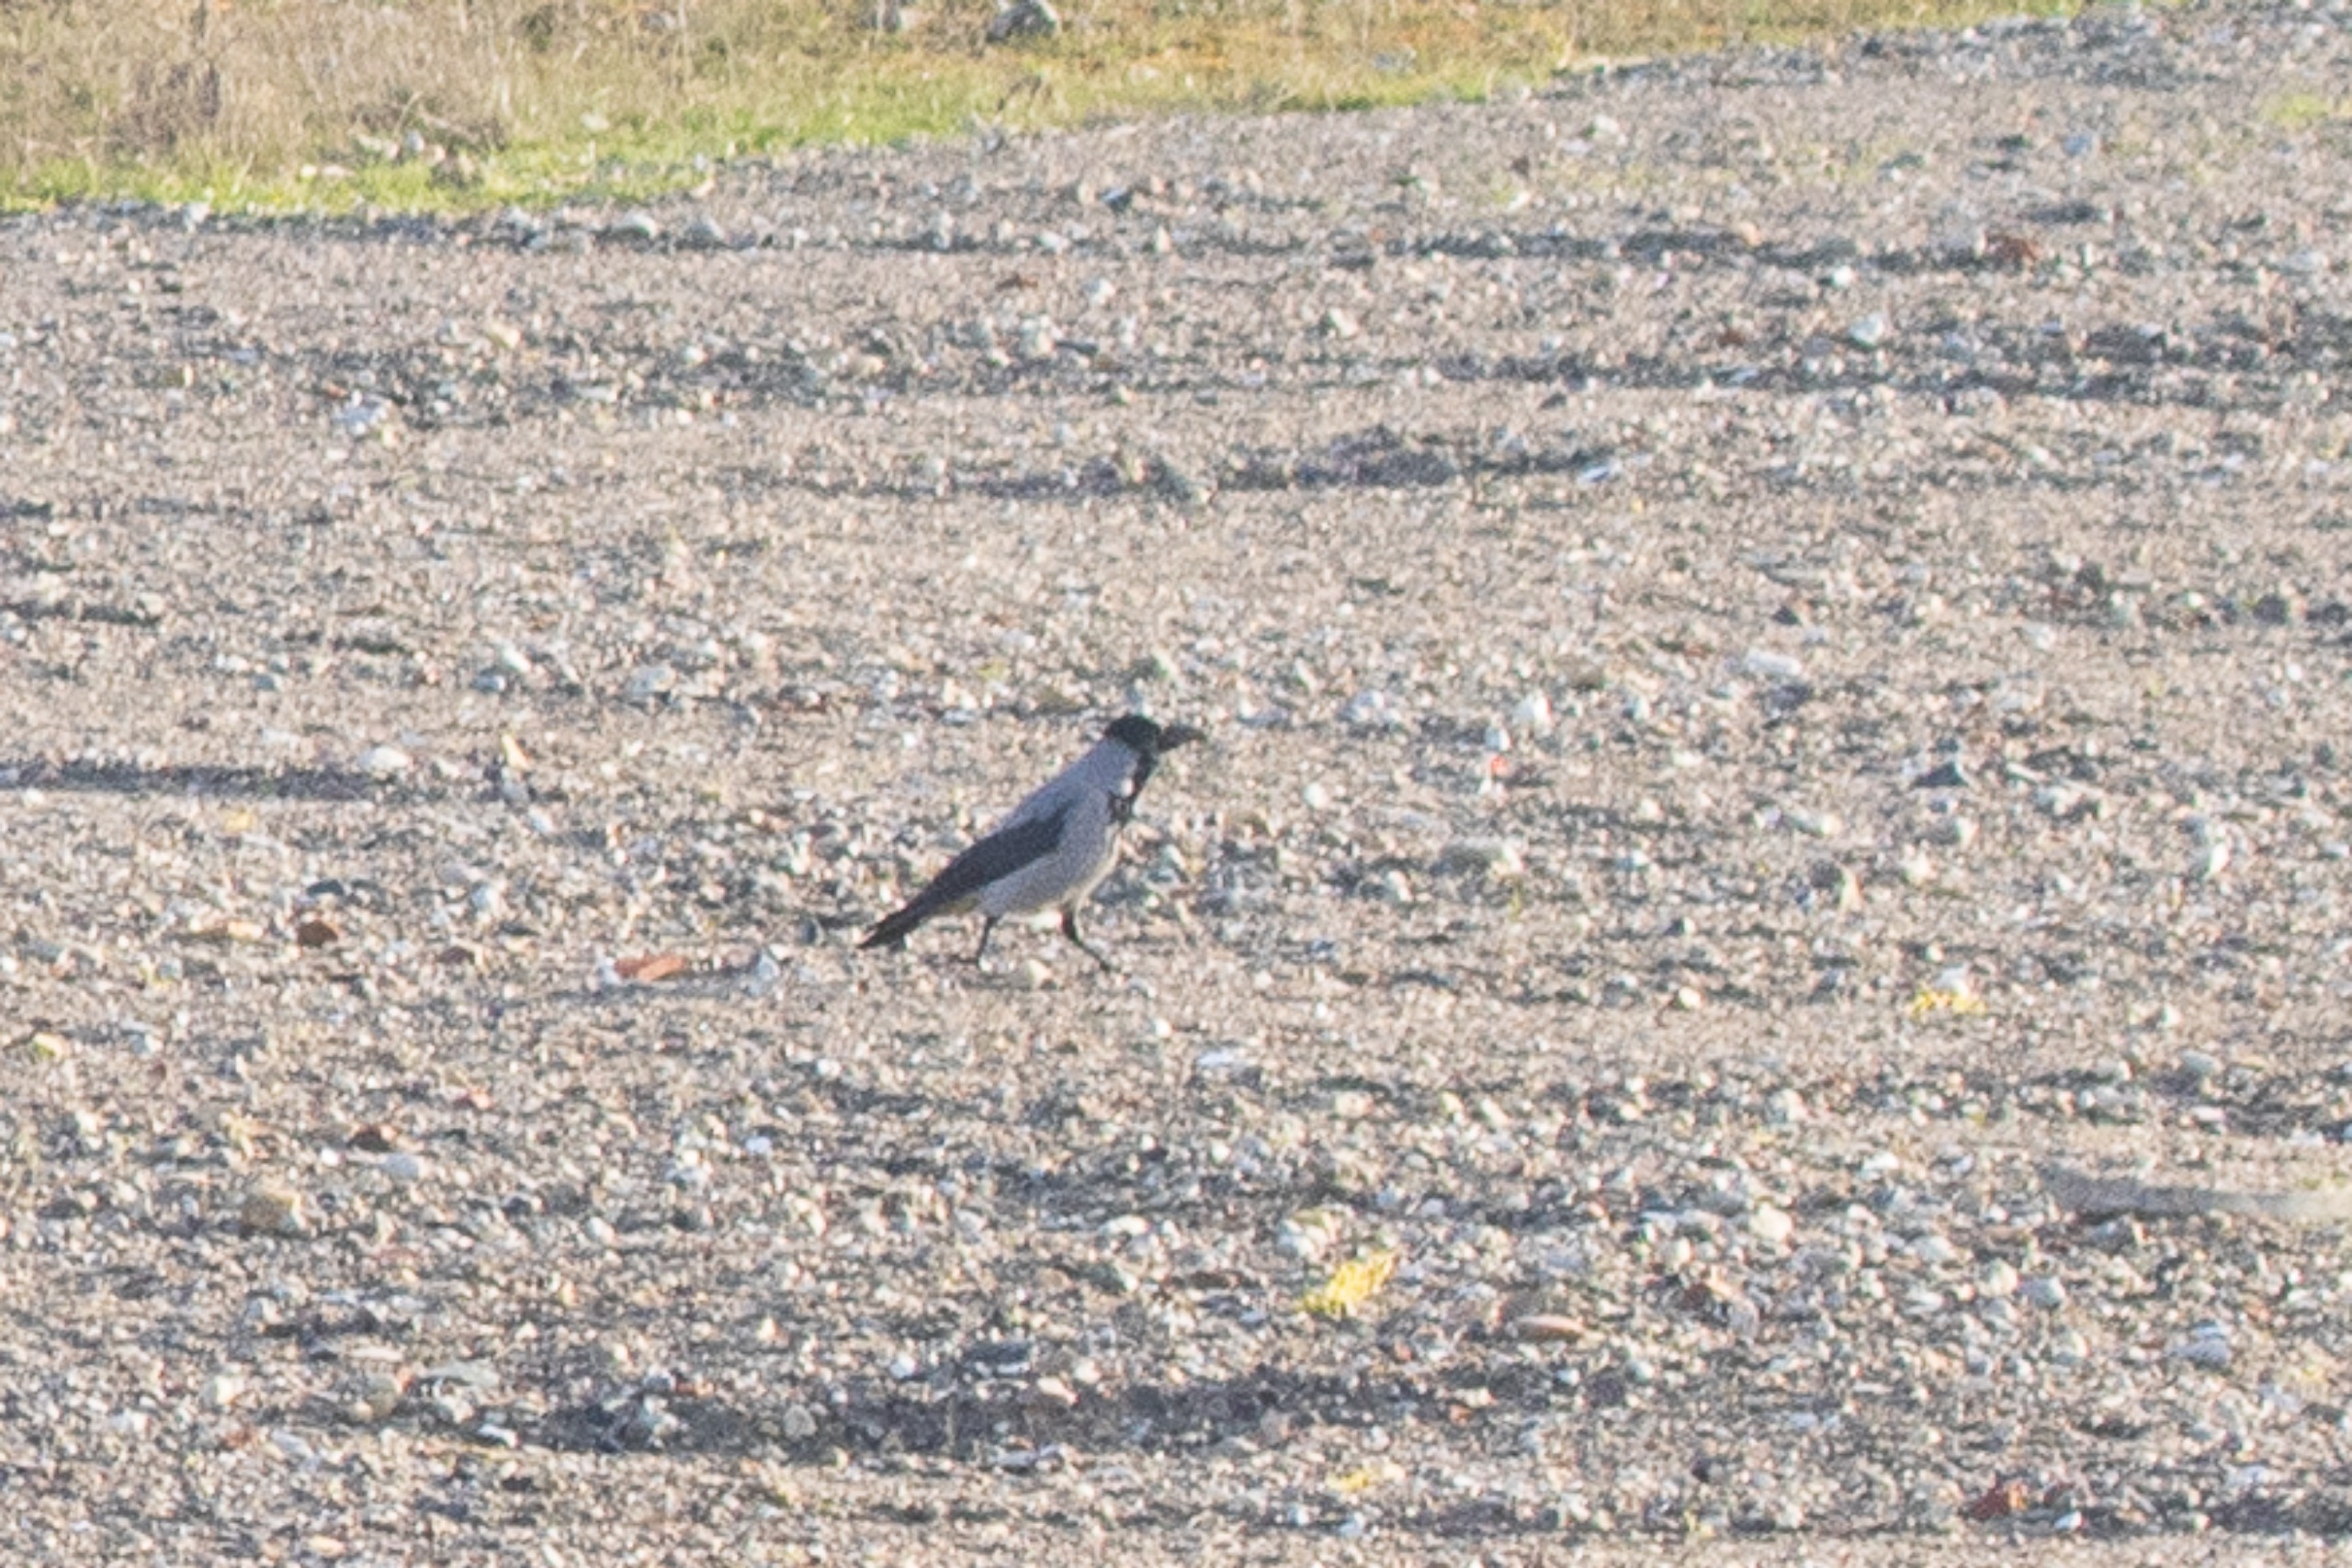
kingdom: Animalia
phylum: Chordata
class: Aves
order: Passeriformes
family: Corvidae
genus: Corvus
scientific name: Corvus cornix
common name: Gråkrage
